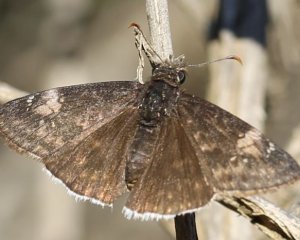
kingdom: Animalia
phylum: Arthropoda
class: Insecta
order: Lepidoptera
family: Hesperiidae
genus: Erynnis
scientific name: Erynnis tristis
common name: Mournful Duskywing
